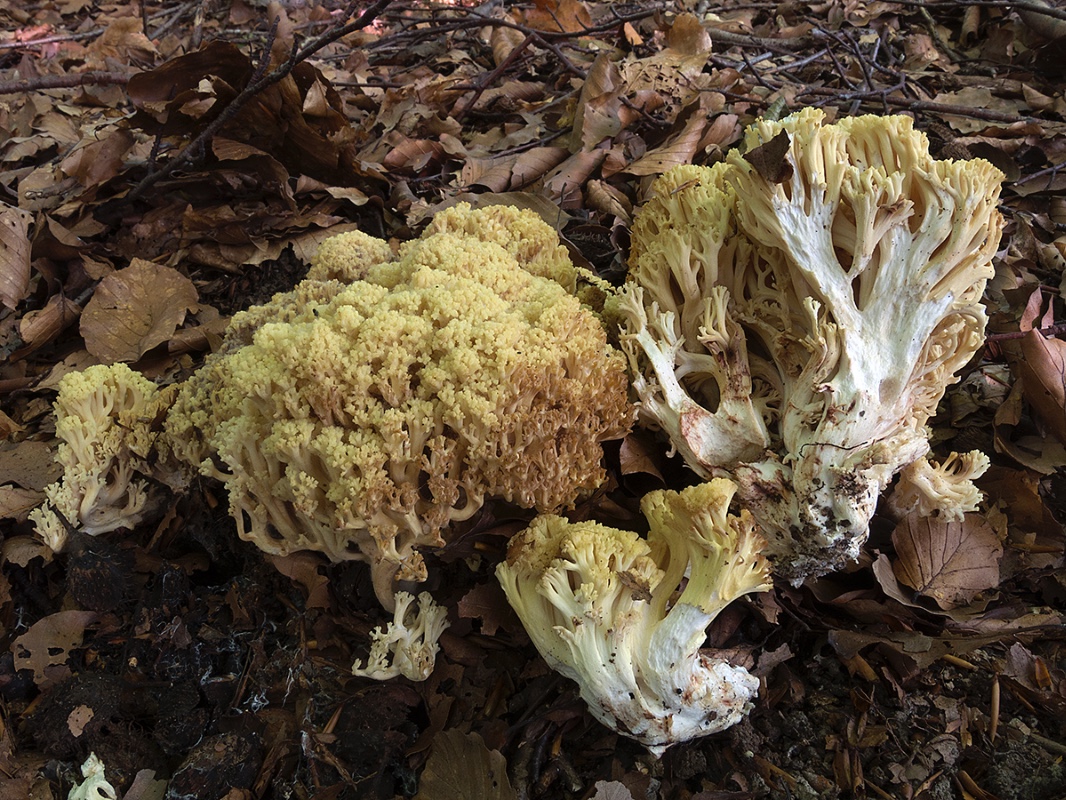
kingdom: Fungi
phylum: Basidiomycota
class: Agaricomycetes
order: Gomphales
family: Gomphaceae
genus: Ramaria
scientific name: Ramaria sanguinea
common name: blodplettet koralsvamp
